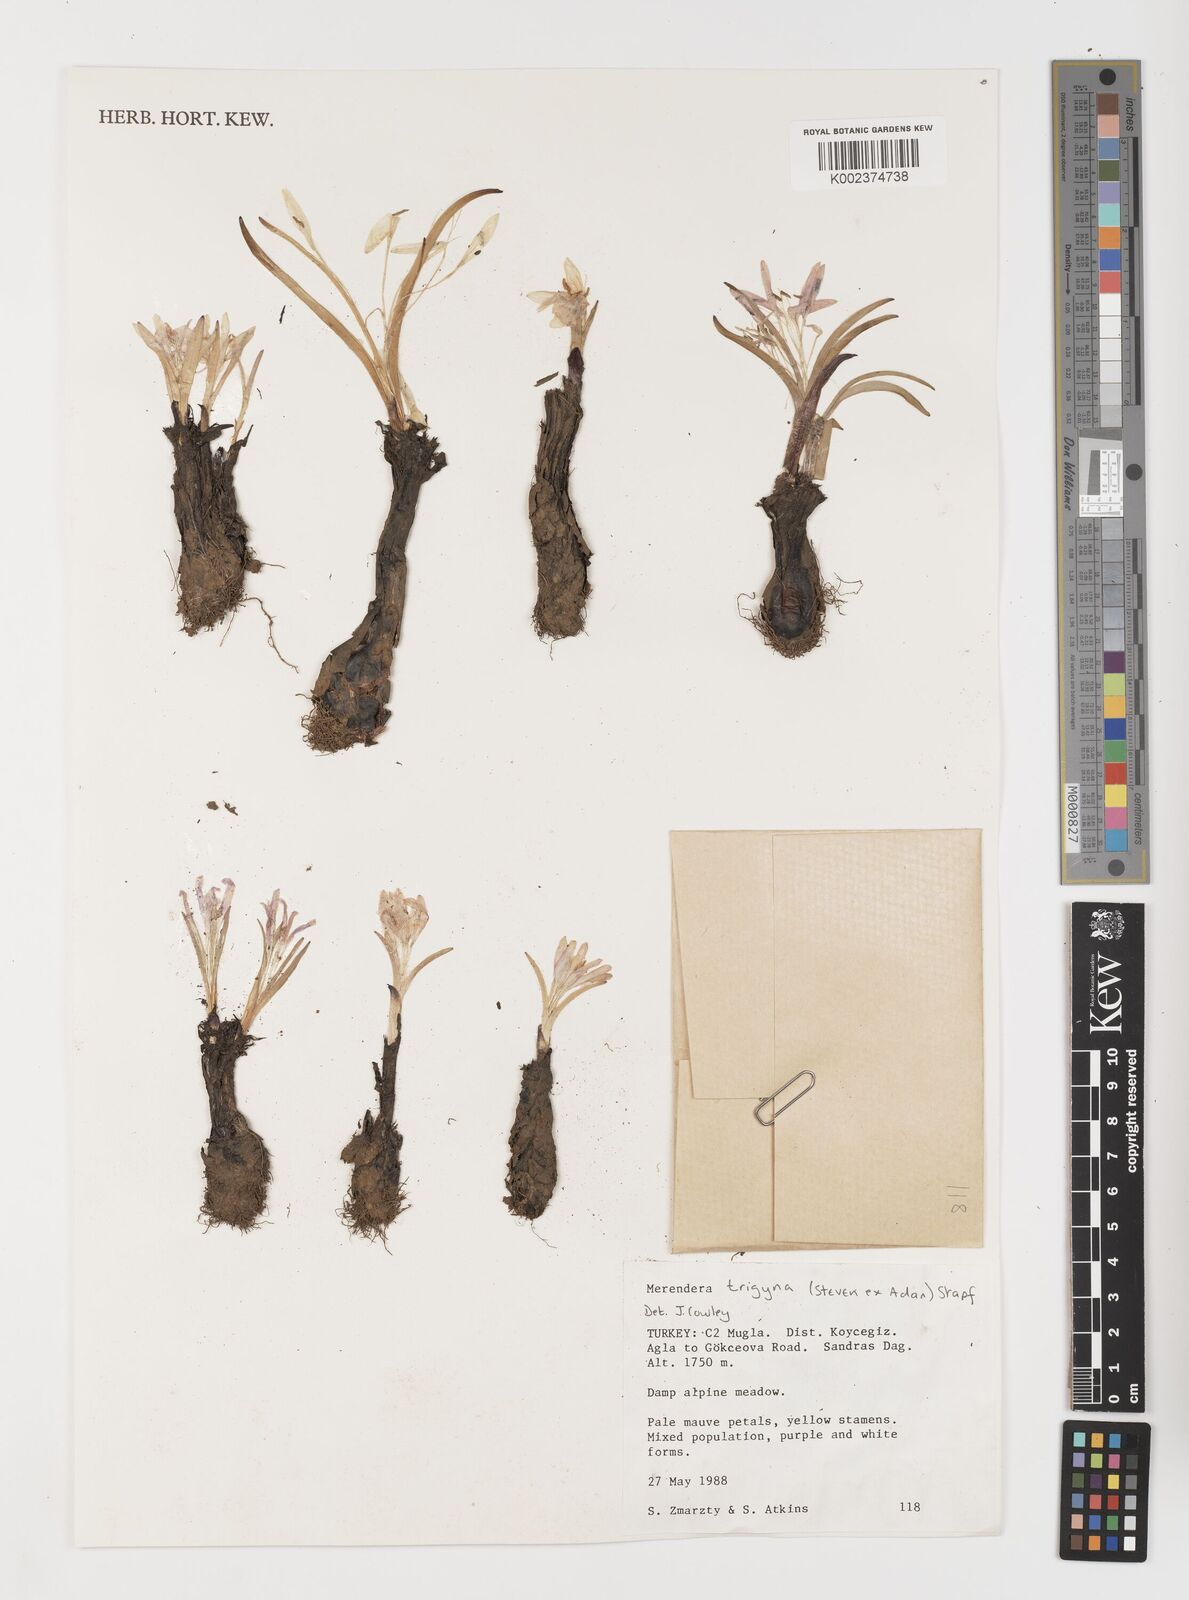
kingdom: Plantae
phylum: Tracheophyta
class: Liliopsida
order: Liliales
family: Colchicaceae
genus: Colchicum
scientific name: Colchicum trigynum
